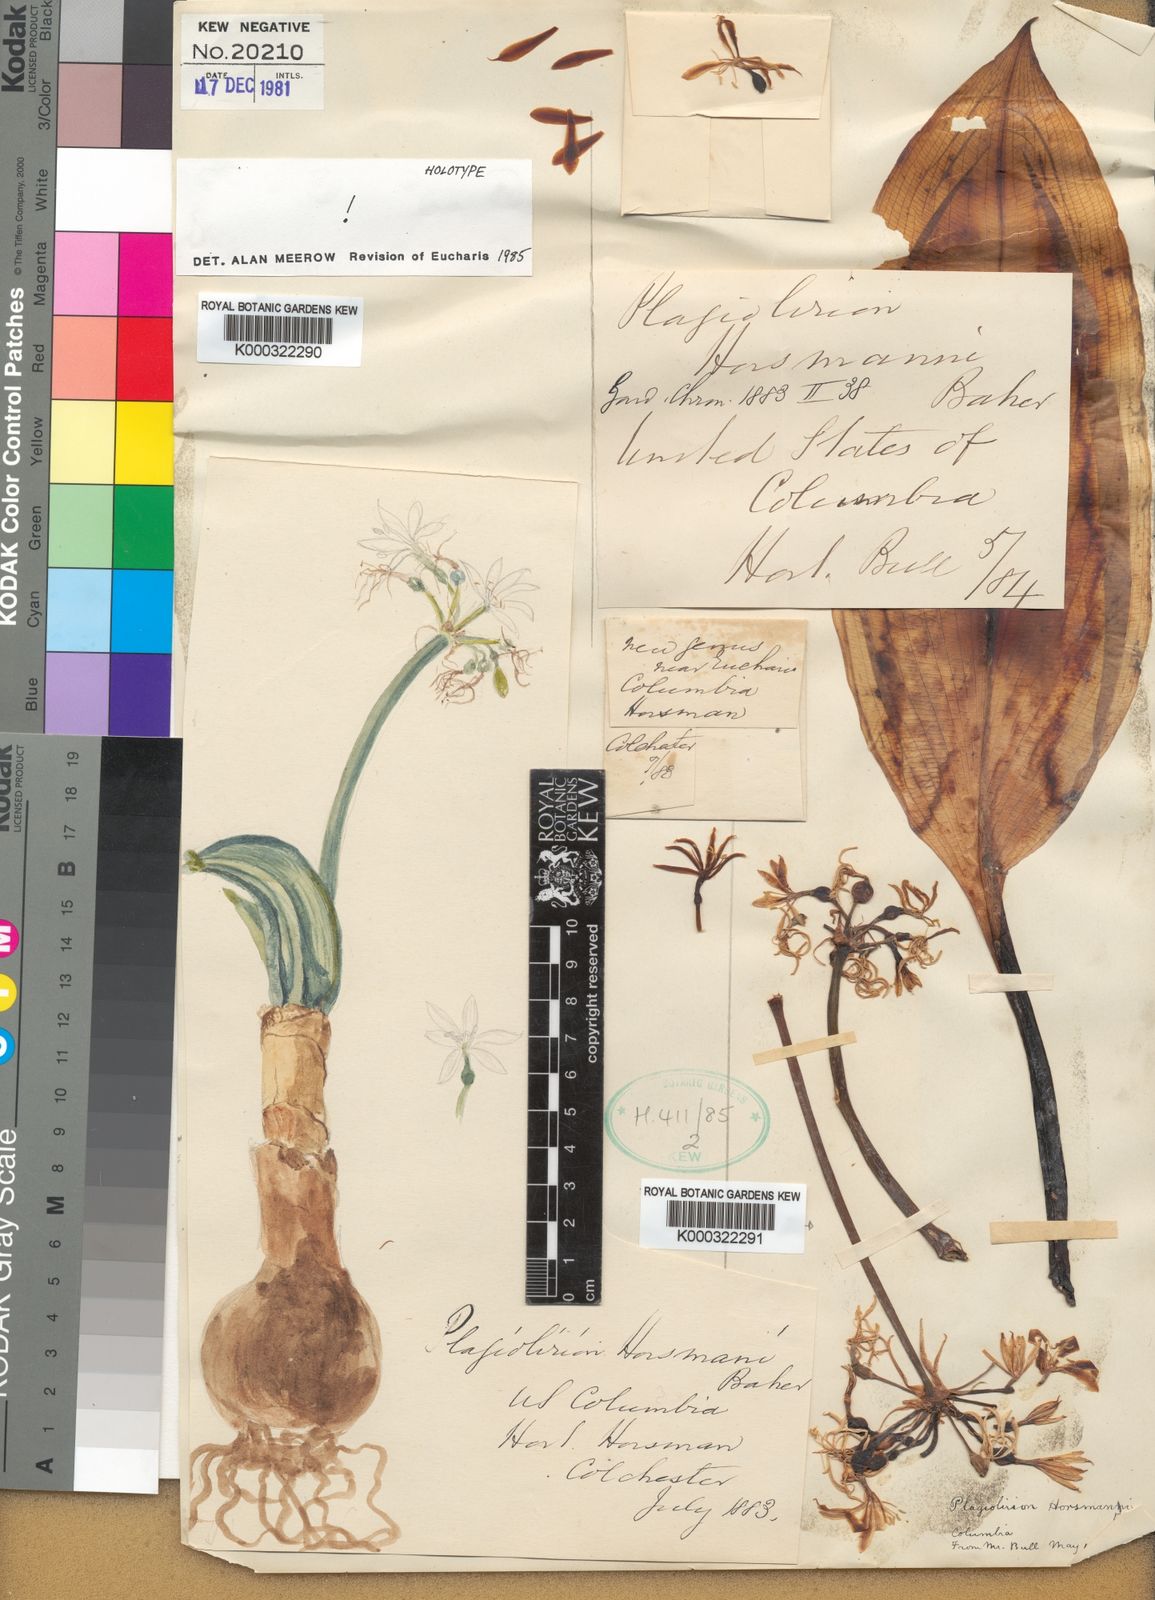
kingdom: Plantae
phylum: Tracheophyta
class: Liliopsida
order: Asparagales
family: Amaryllidaceae
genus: Plagiolirion
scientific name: Plagiolirion horsmannii
